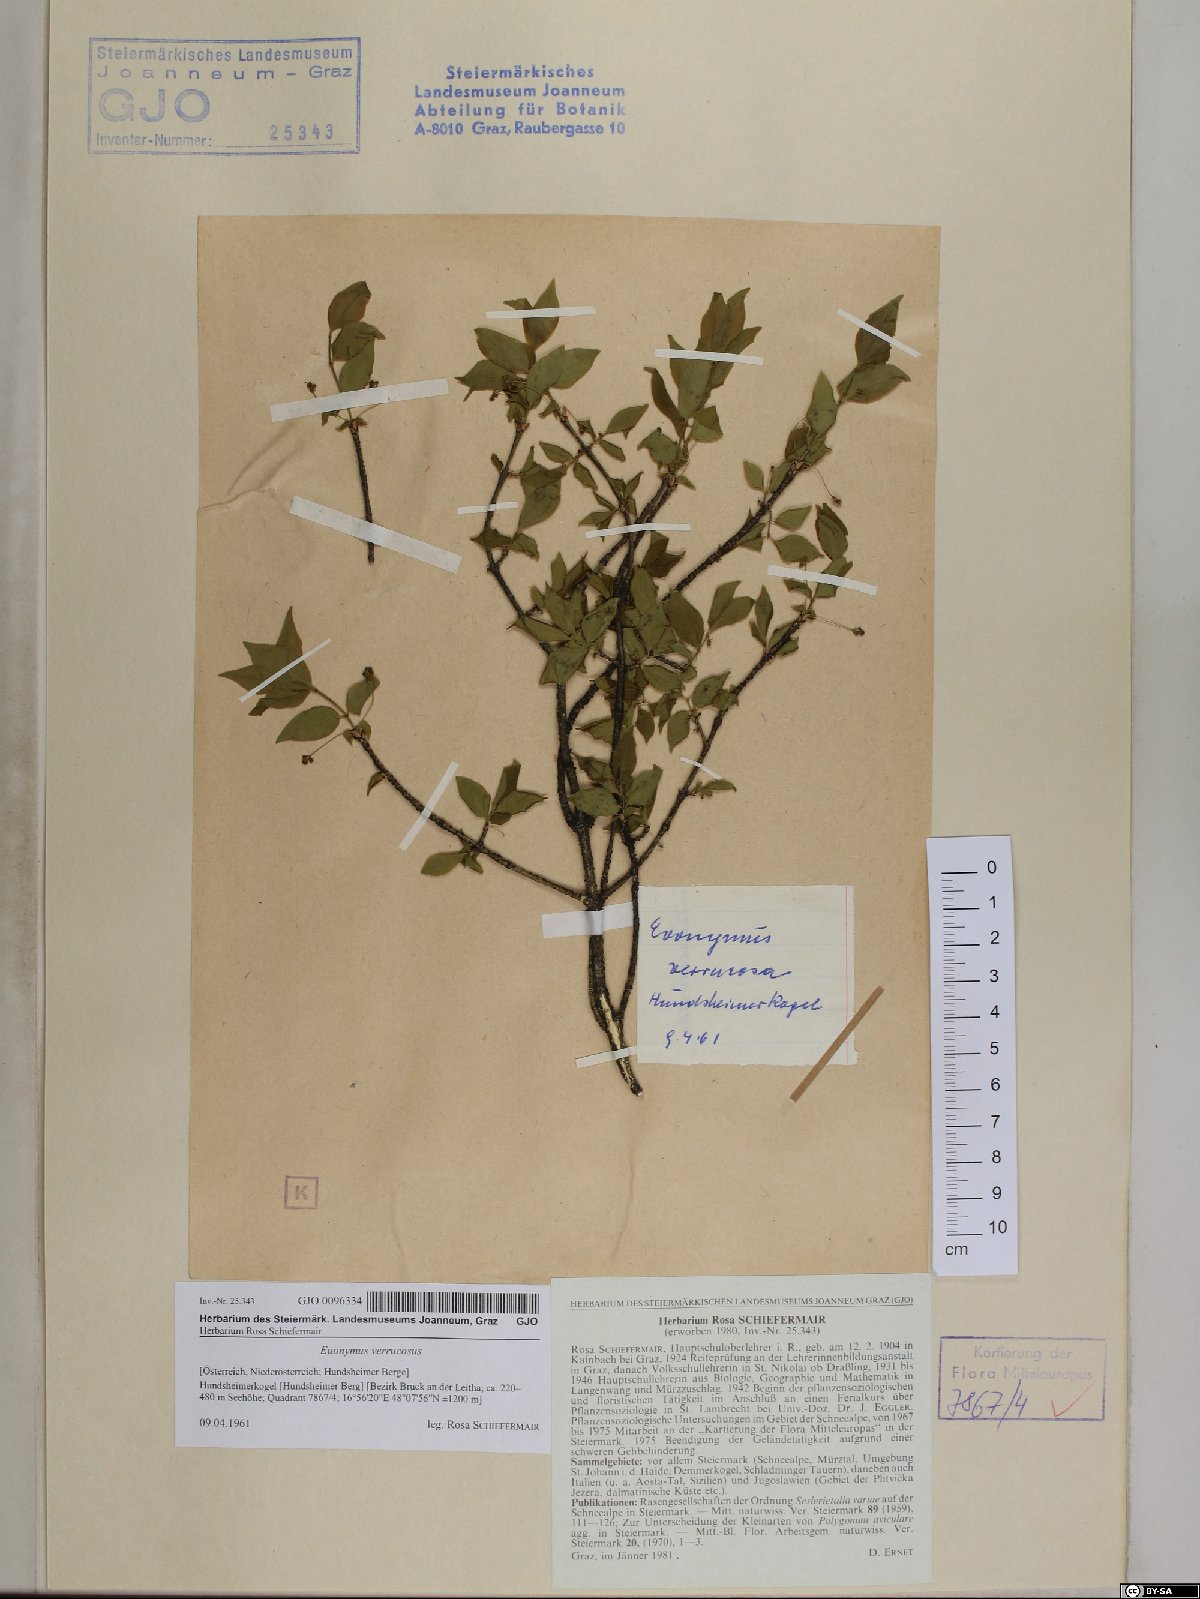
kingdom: Plantae
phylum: Tracheophyta
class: Magnoliopsida
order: Celastrales
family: Celastraceae
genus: Euonymus
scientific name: Euonymus verrucosus
